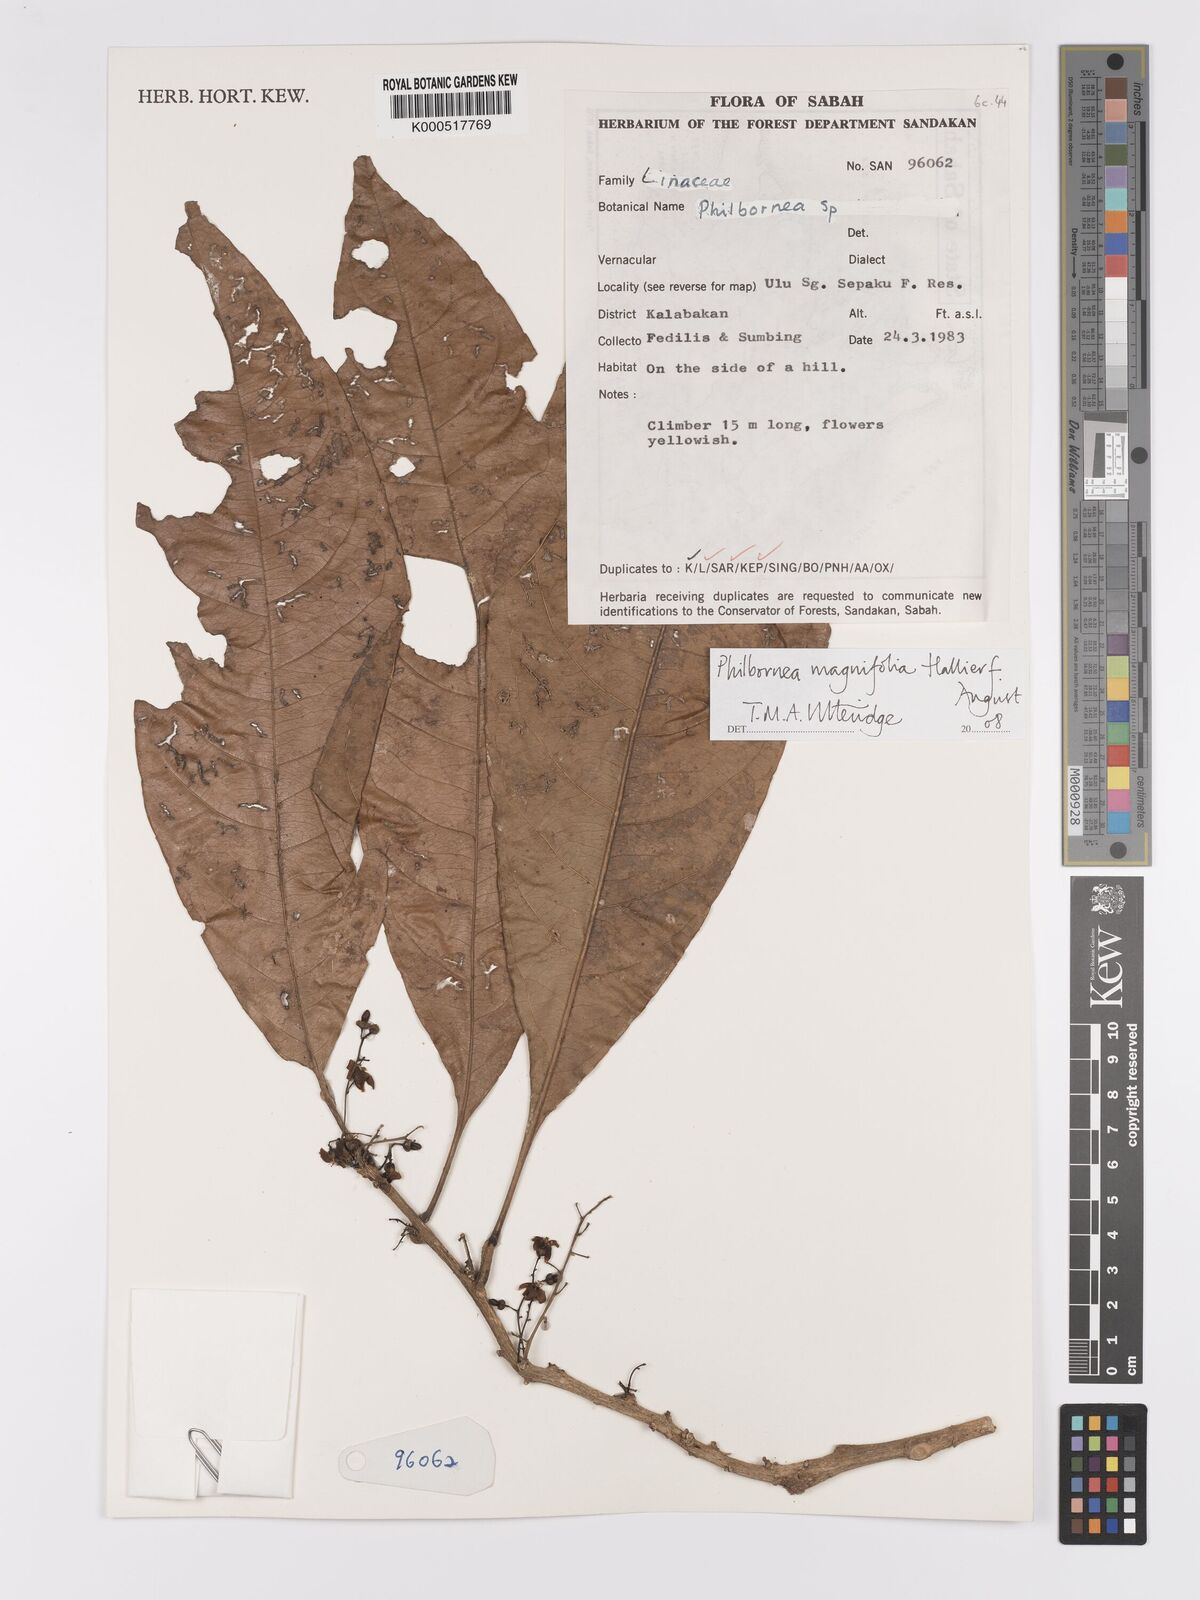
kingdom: Plantae
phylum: Tracheophyta
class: Magnoliopsida
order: Malpighiales
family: Linaceae
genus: Philbornea
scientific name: Philbornea magnifolia
